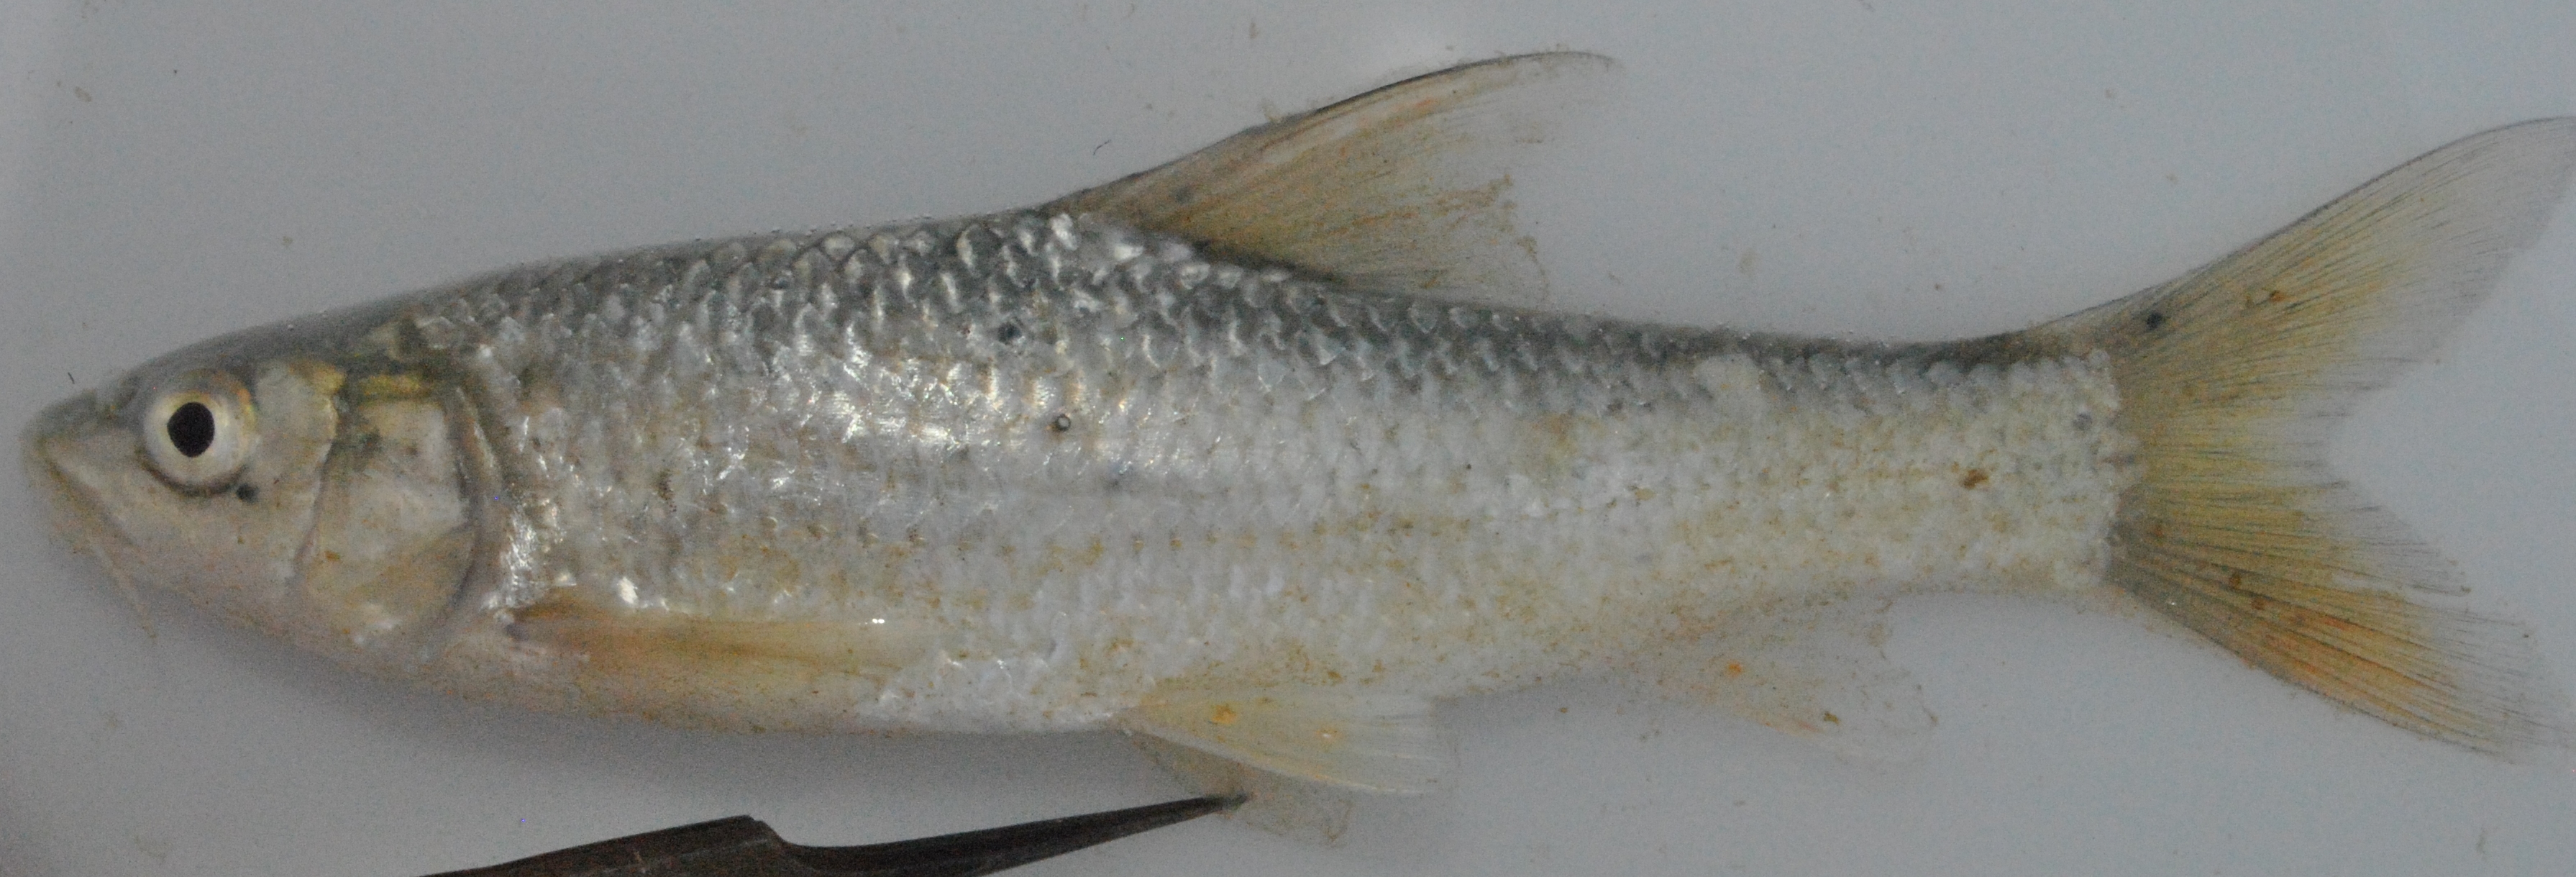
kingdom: Animalia
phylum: Chordata
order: Cypriniformes
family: Cyprinidae
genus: Labeobarbus
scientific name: Labeobarbus natalensis
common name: Scaly
